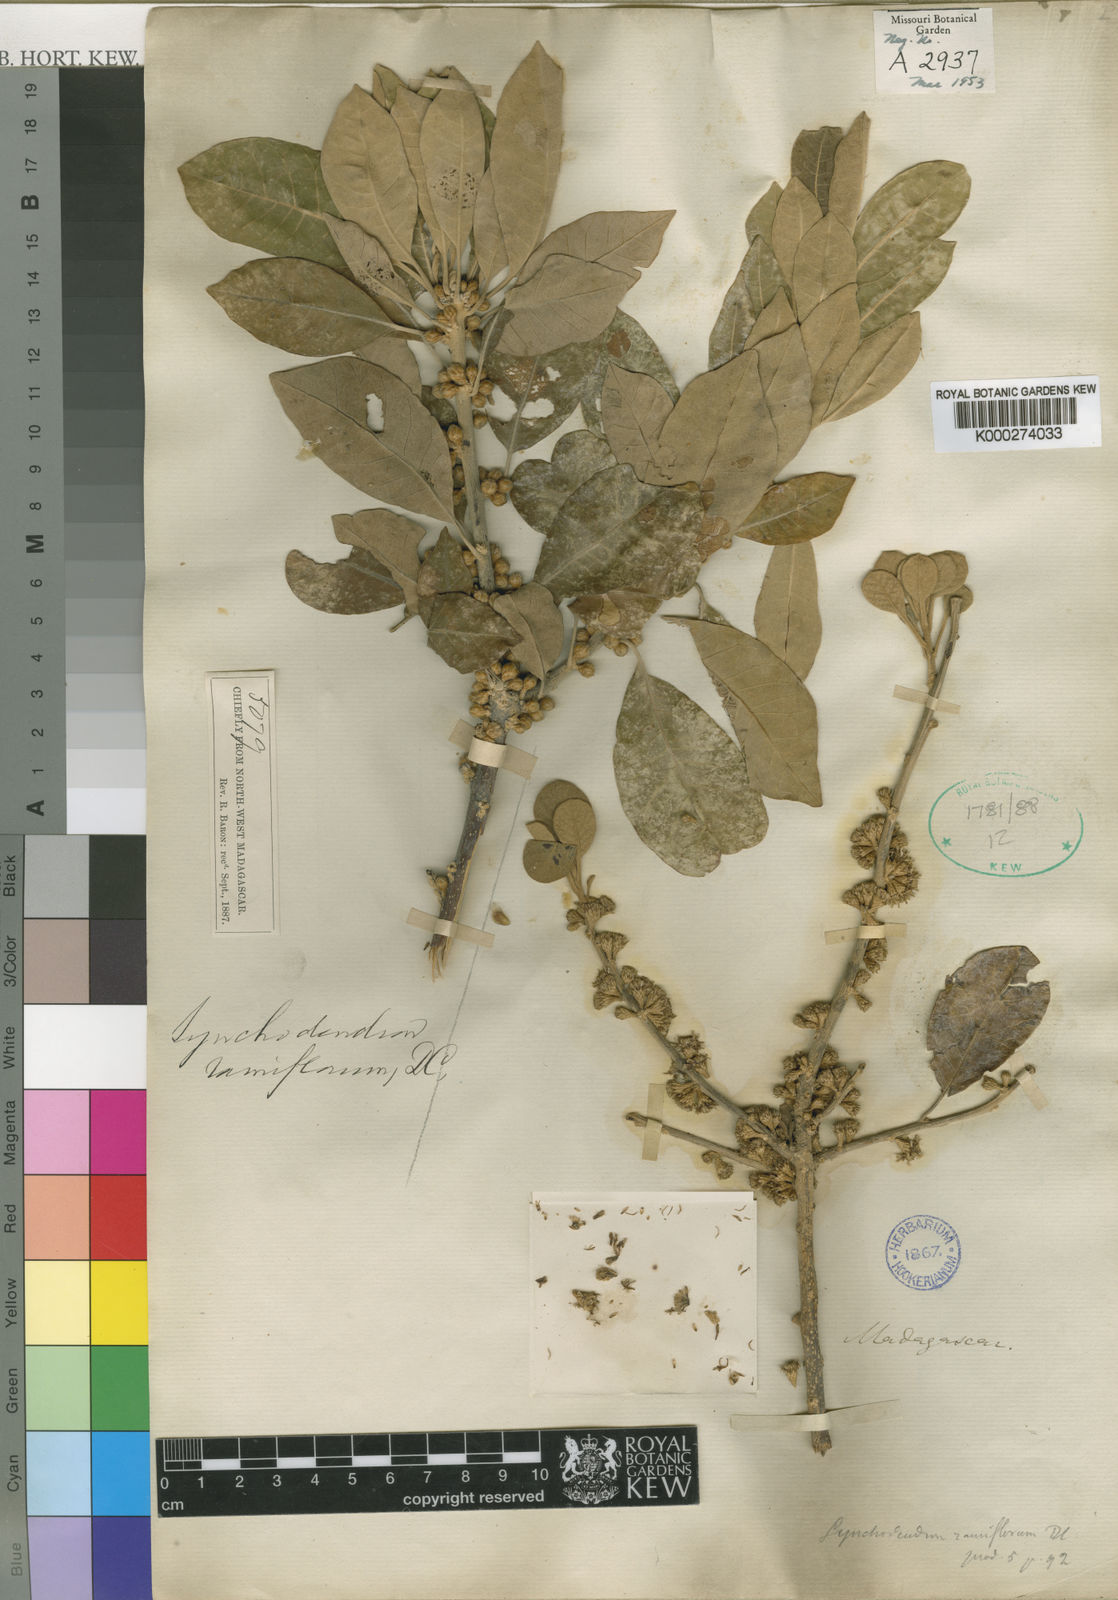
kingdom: Plantae
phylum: Tracheophyta
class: Magnoliopsida
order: Asterales
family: Asteraceae
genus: Brachylaena
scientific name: Brachylaena ramiflora
